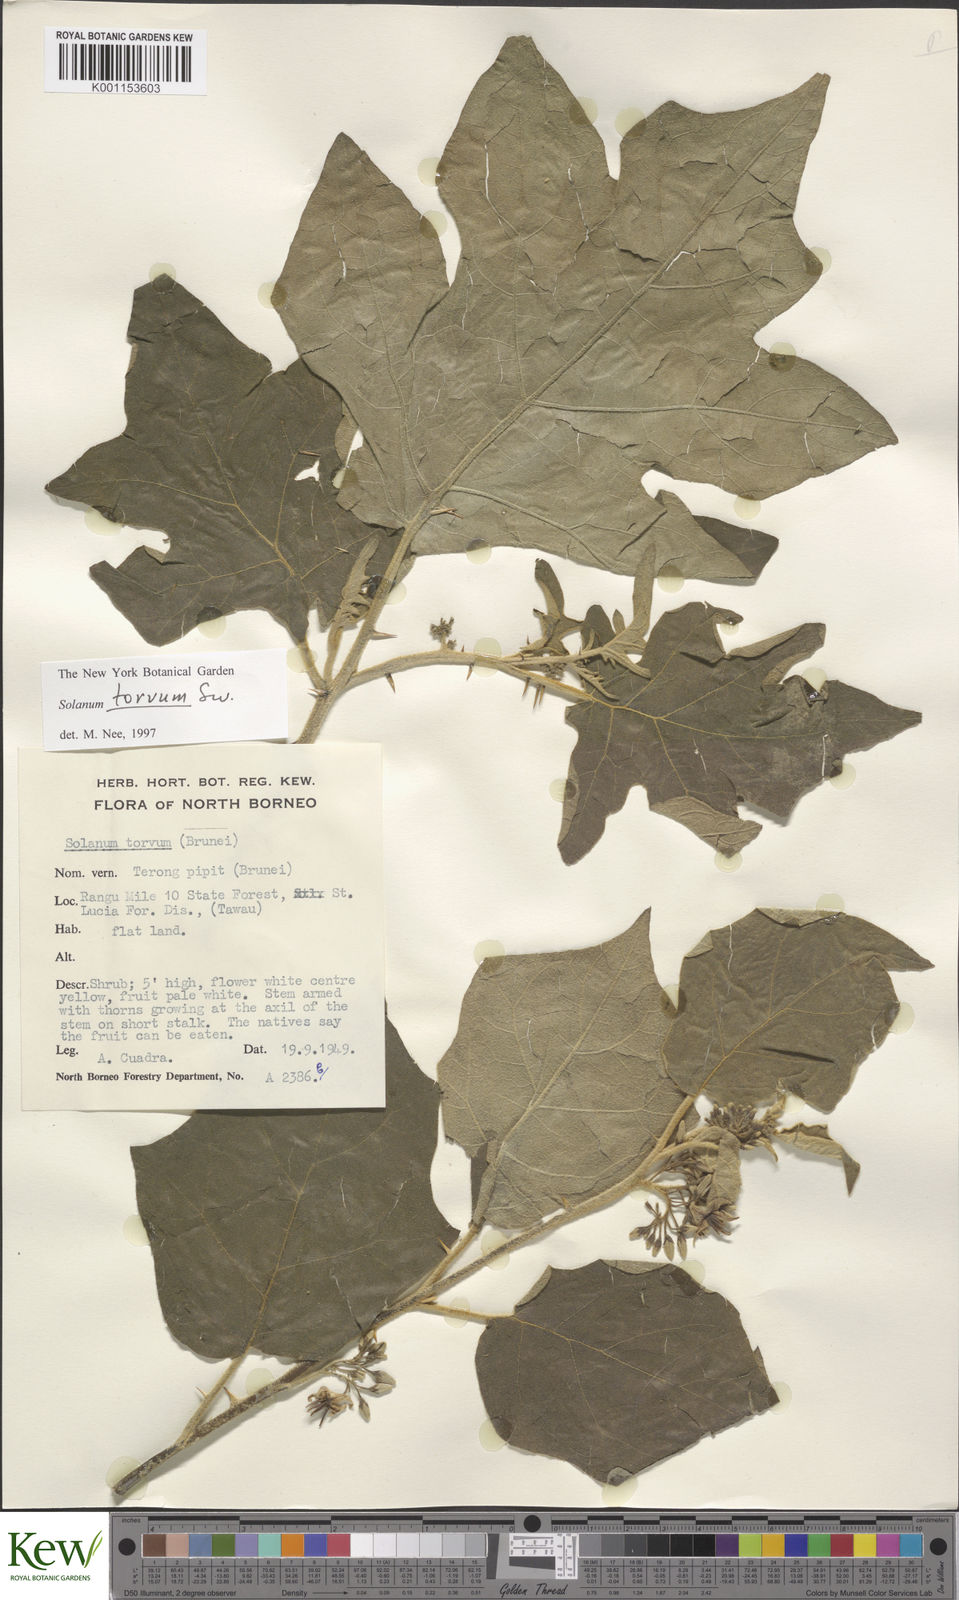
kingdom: Plantae
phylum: Tracheophyta
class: Magnoliopsida
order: Solanales
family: Solanaceae
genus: Solanum
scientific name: Solanum torvum
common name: Turkey berry
